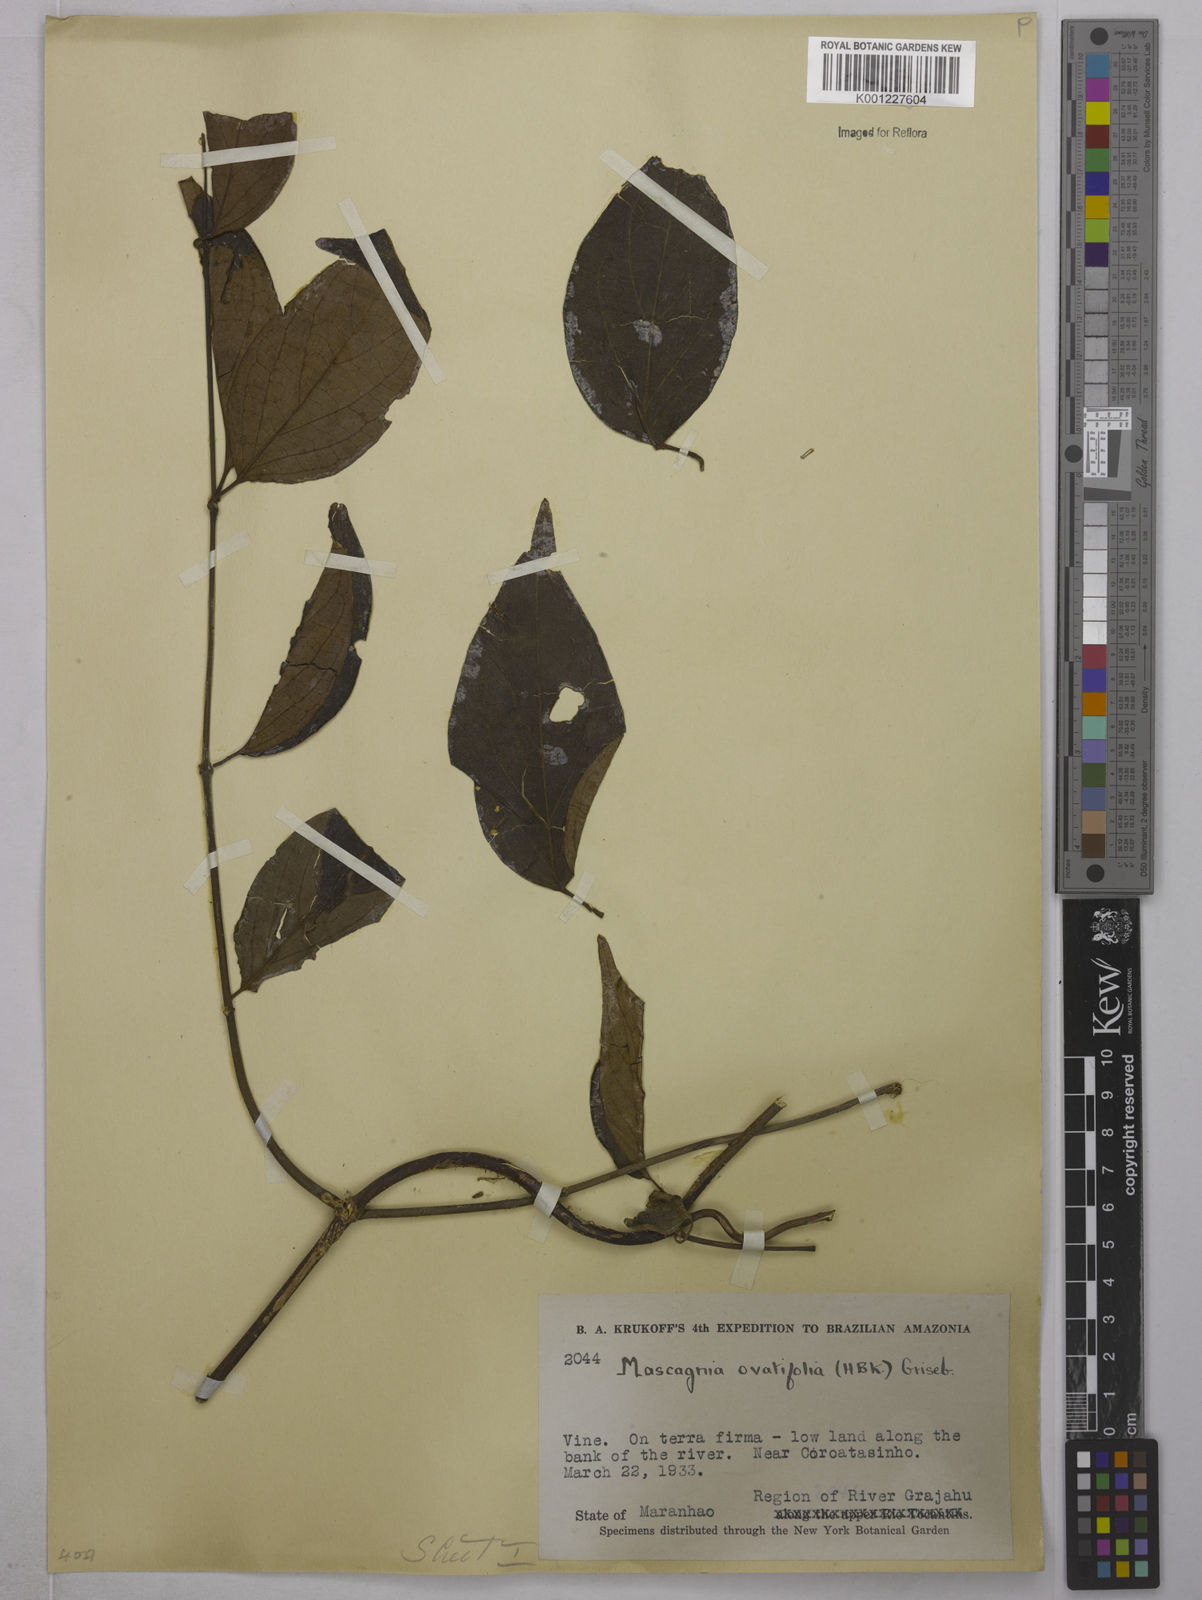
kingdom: Plantae
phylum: Tracheophyta
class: Magnoliopsida
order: Malpighiales
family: Malpighiaceae
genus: Mascagnia
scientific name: Mascagnia divaricata
